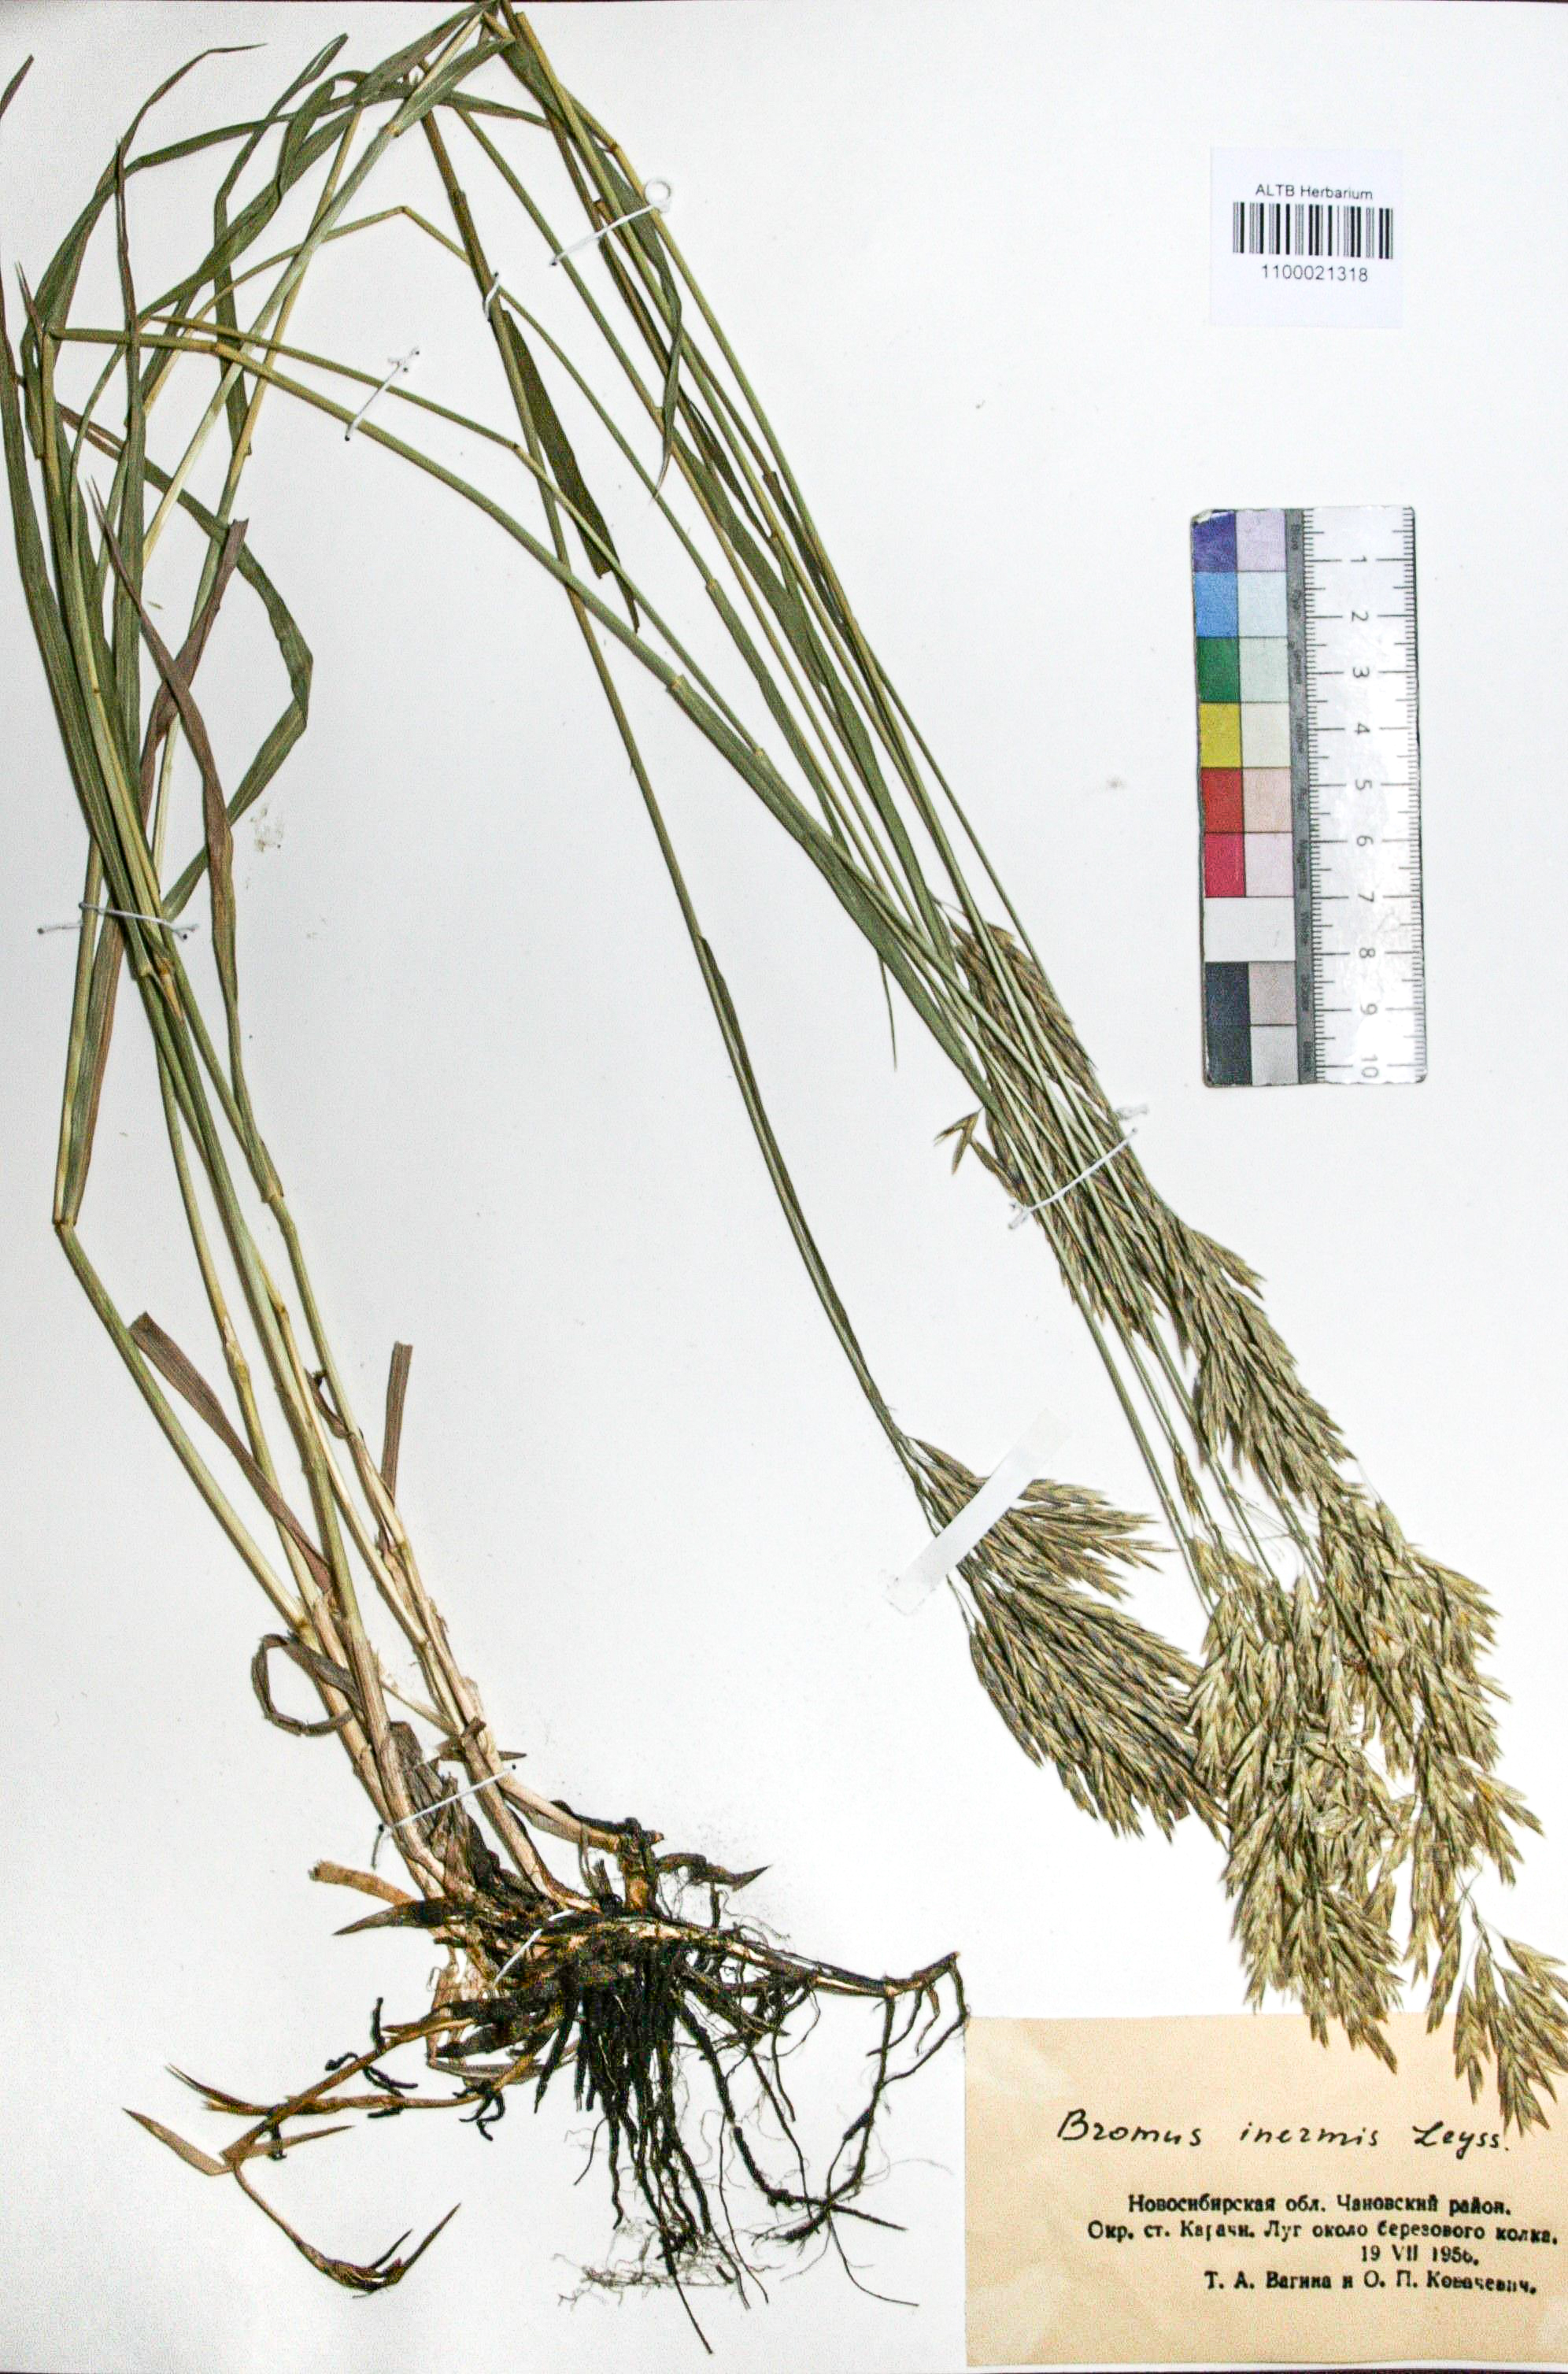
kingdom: Plantae
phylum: Tracheophyta
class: Liliopsida
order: Poales
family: Poaceae
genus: Bromus
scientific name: Bromus inermis
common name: Smooth brome
